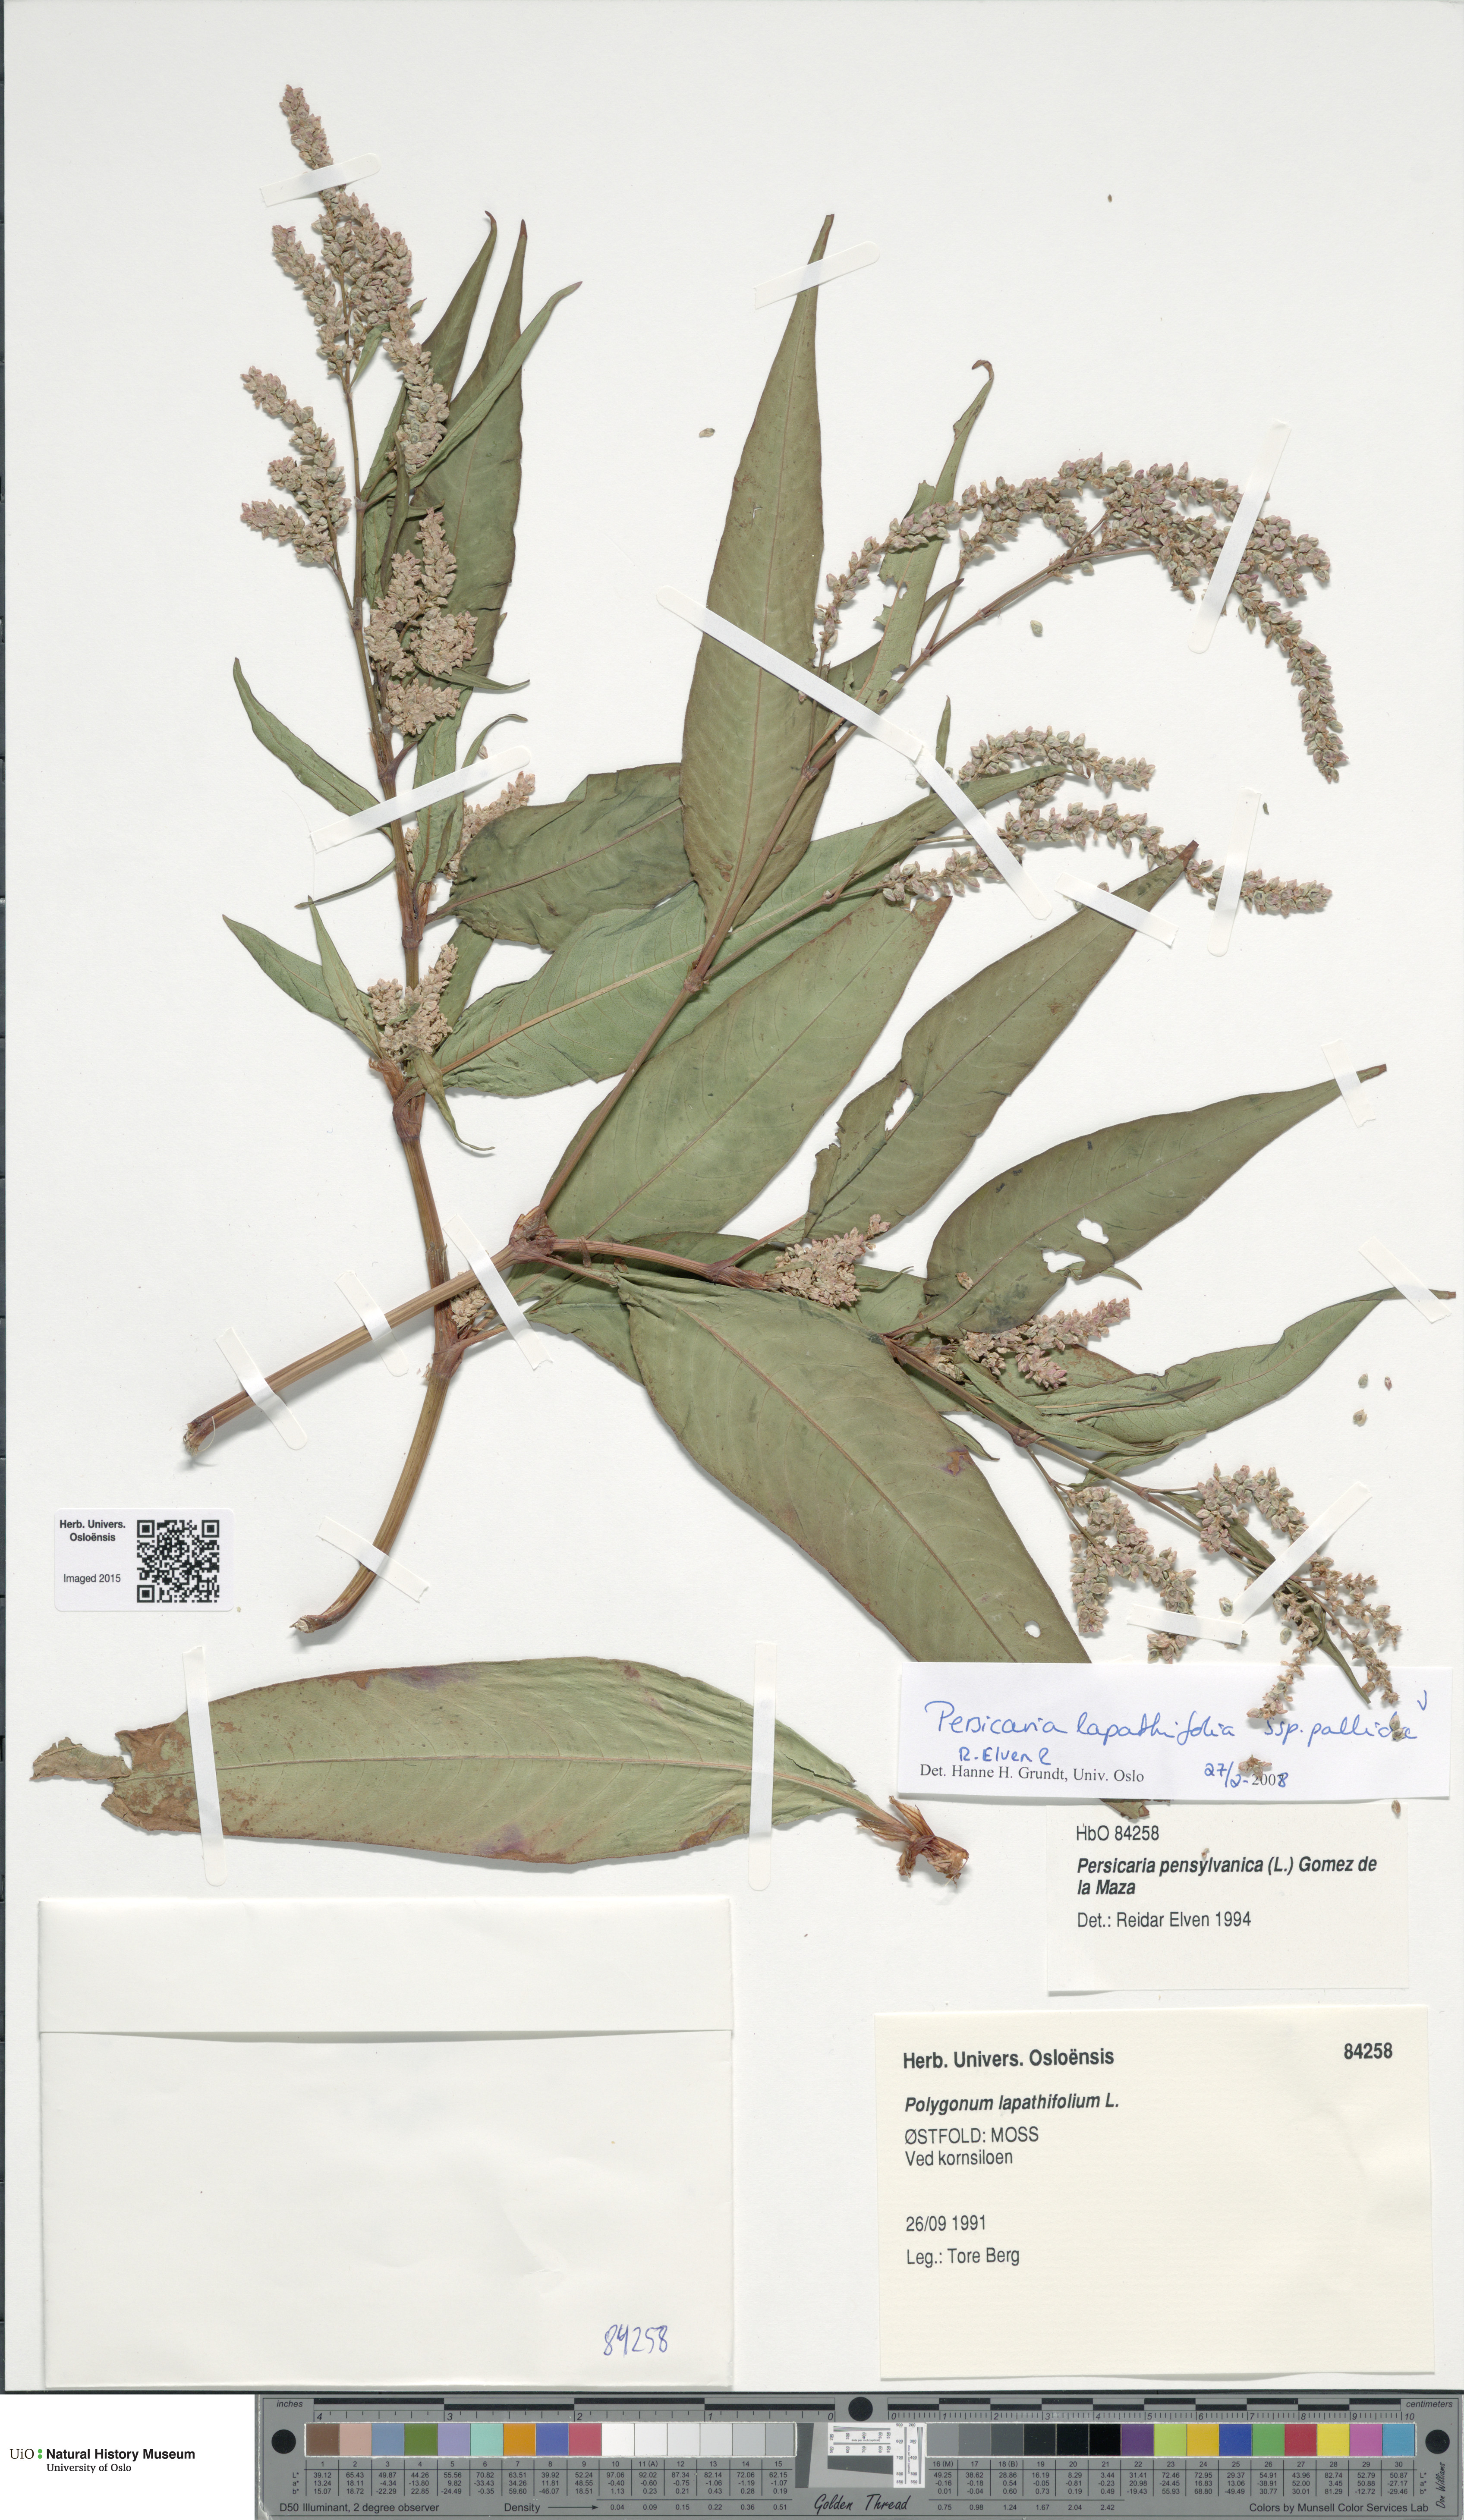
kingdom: Plantae
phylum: Tracheophyta
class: Magnoliopsida
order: Caryophyllales
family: Polygonaceae
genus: Persicaria
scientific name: Persicaria lapathifolia
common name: Curlytop knotweed
